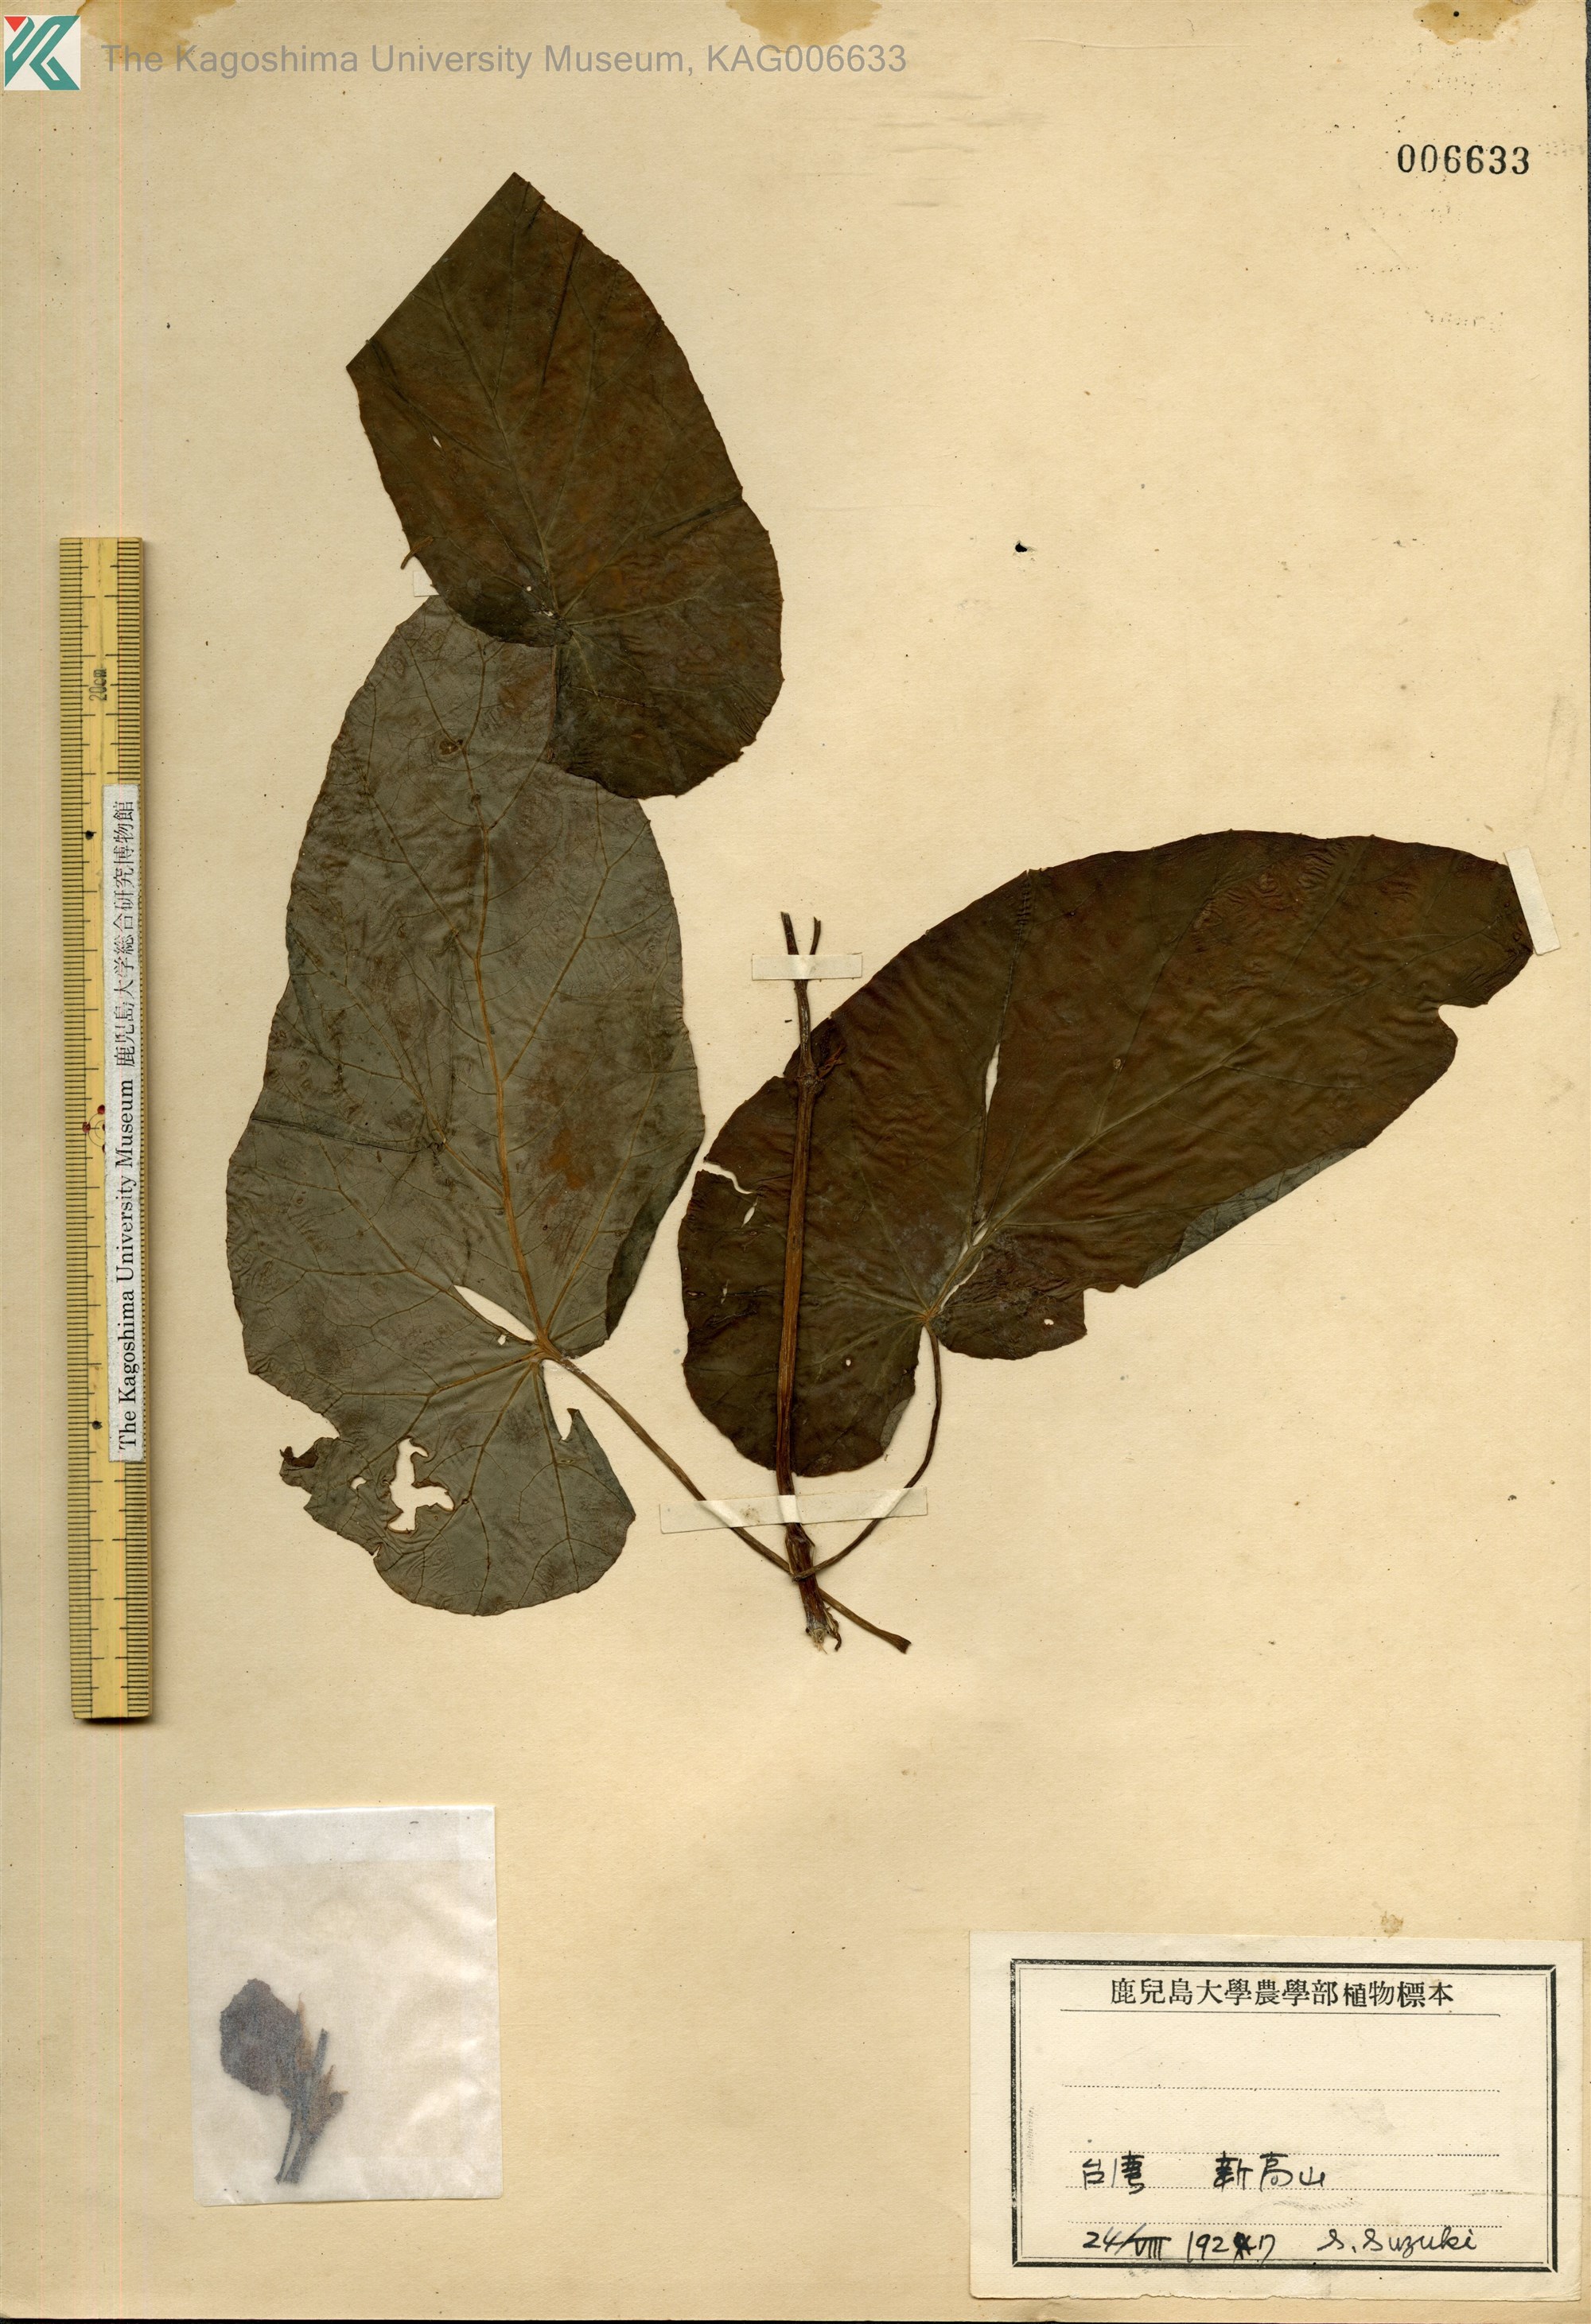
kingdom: Plantae
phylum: Tracheophyta
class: Magnoliopsida
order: Cucurbitales
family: Begoniaceae
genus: Begonia
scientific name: Begonia aptera
